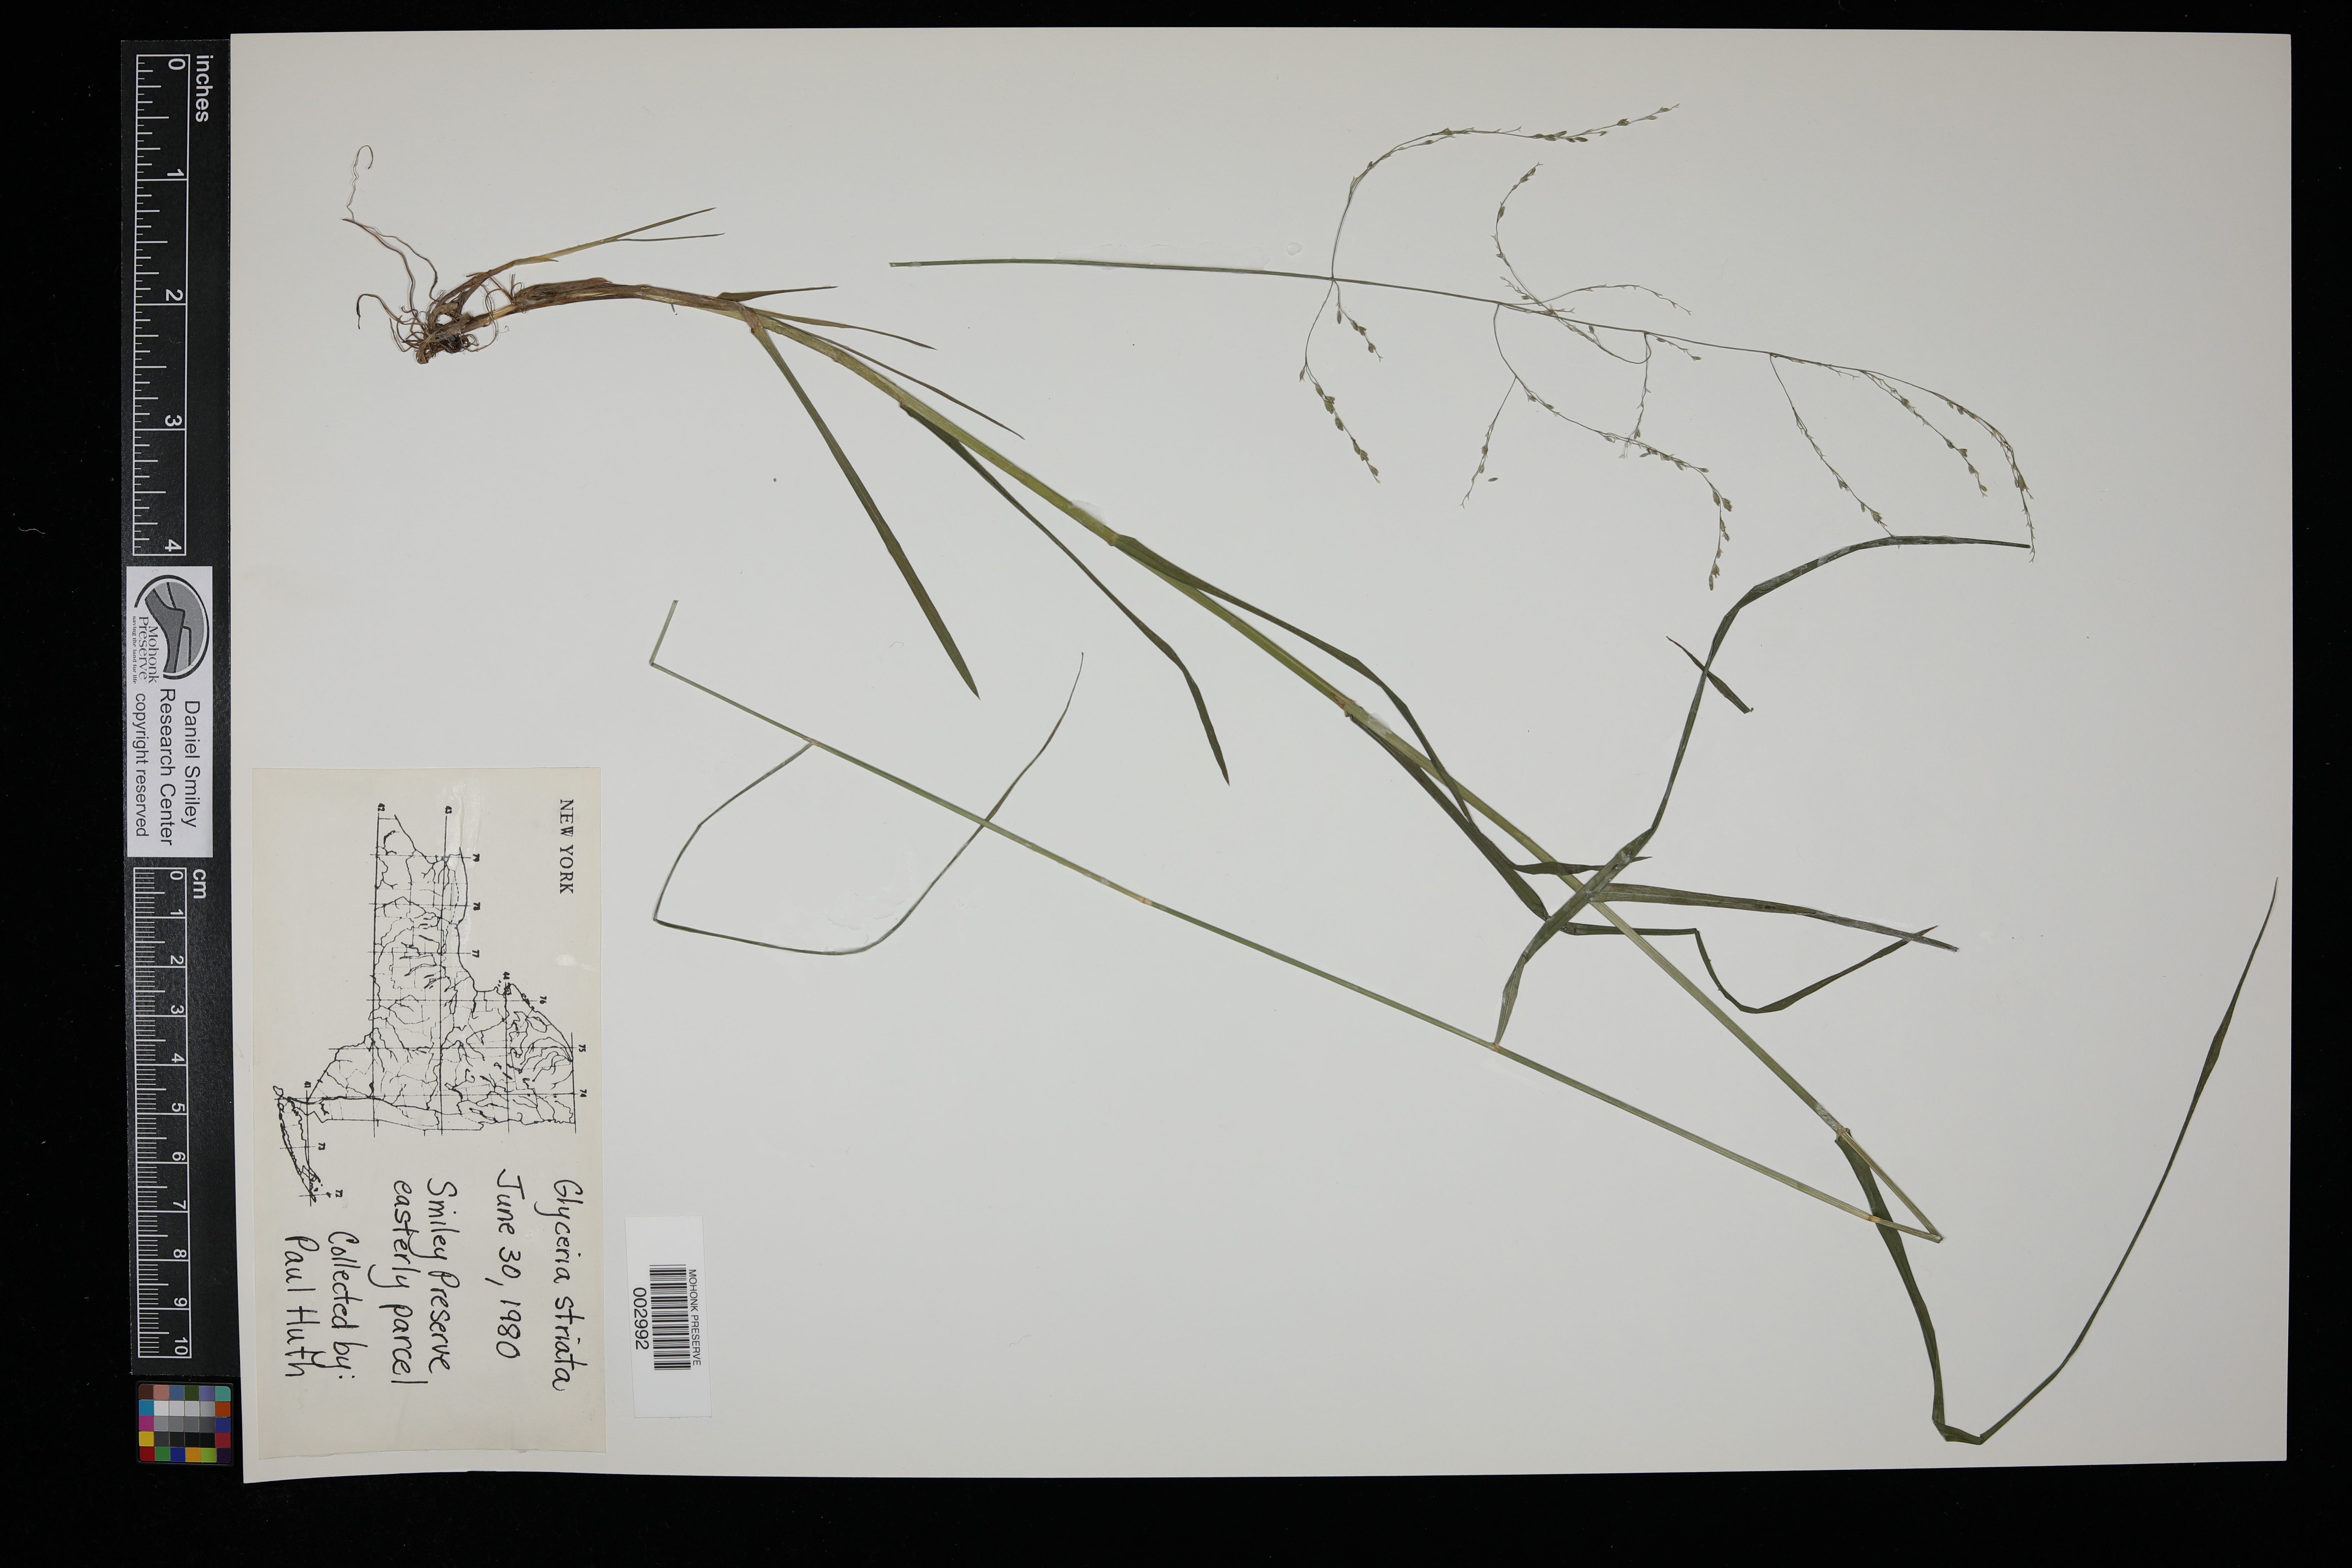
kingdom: Plantae
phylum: Tracheophyta
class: Liliopsida
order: Poales
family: Poaceae
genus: Glyceria
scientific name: Glyceria striata
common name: Fowl manna grass
